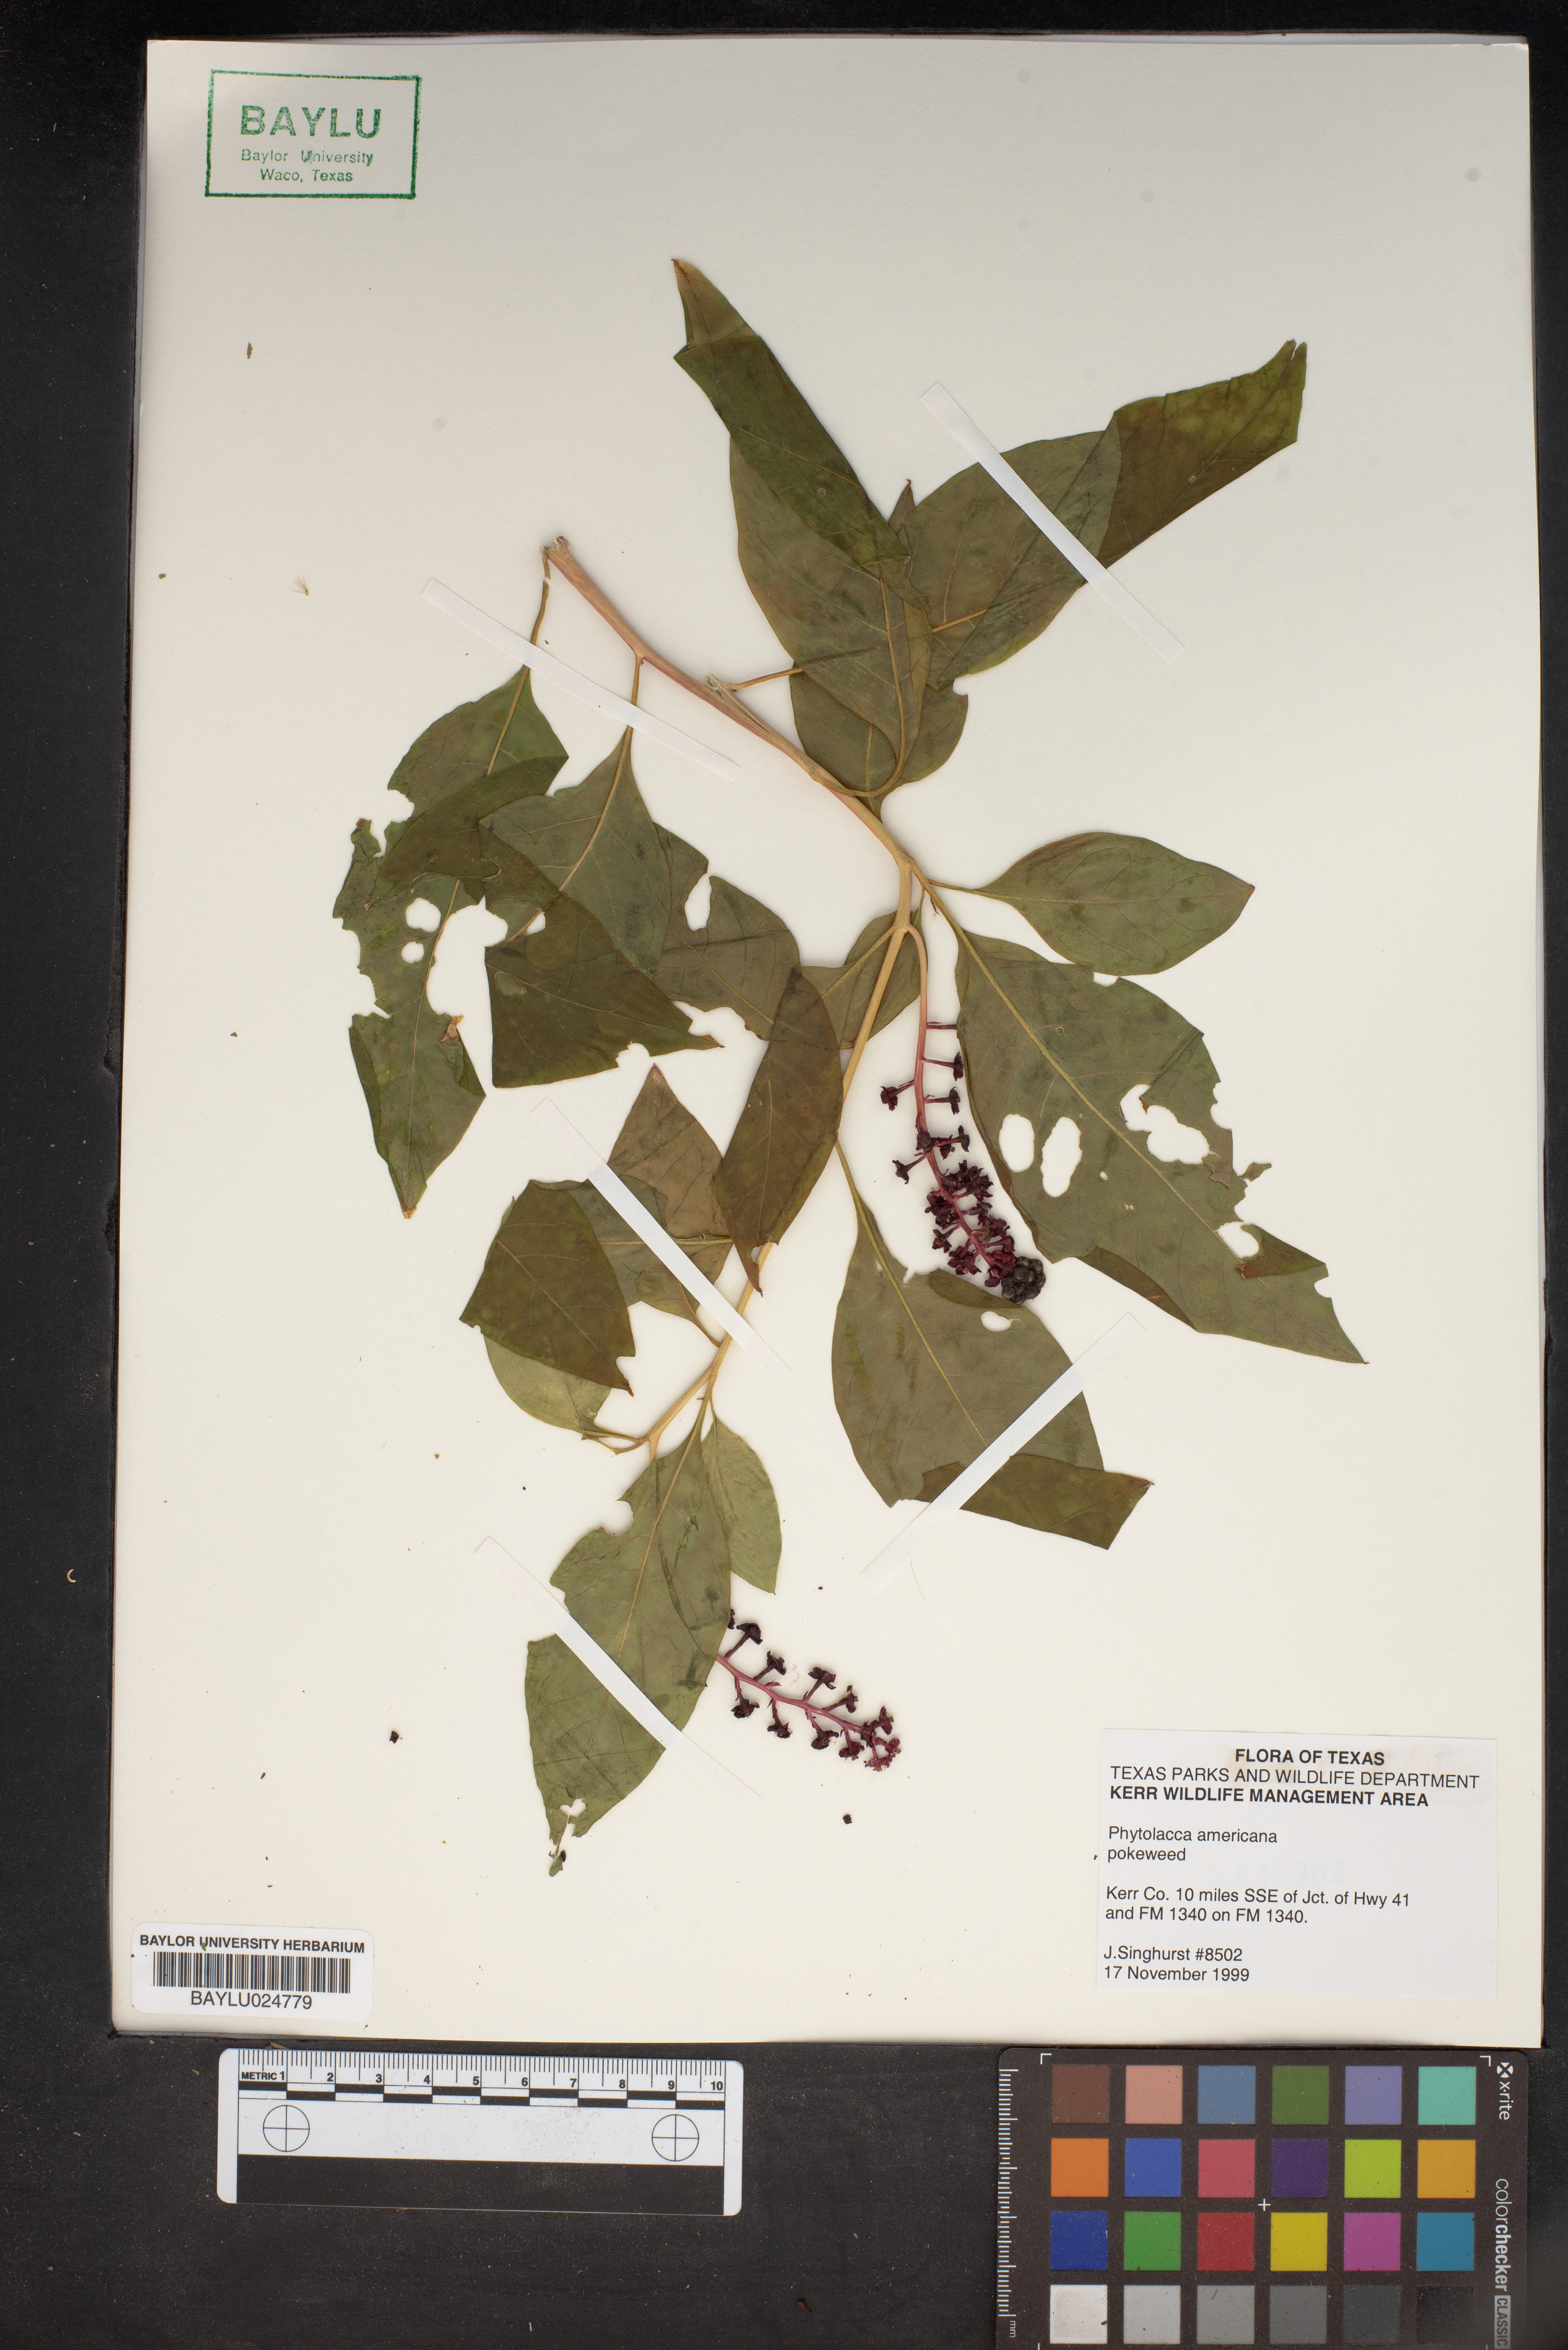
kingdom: Plantae
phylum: Tracheophyta
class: Magnoliopsida
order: Caryophyllales
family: Phytolaccaceae
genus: Phytolacca
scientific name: Phytolacca americana
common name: American pokeweed
